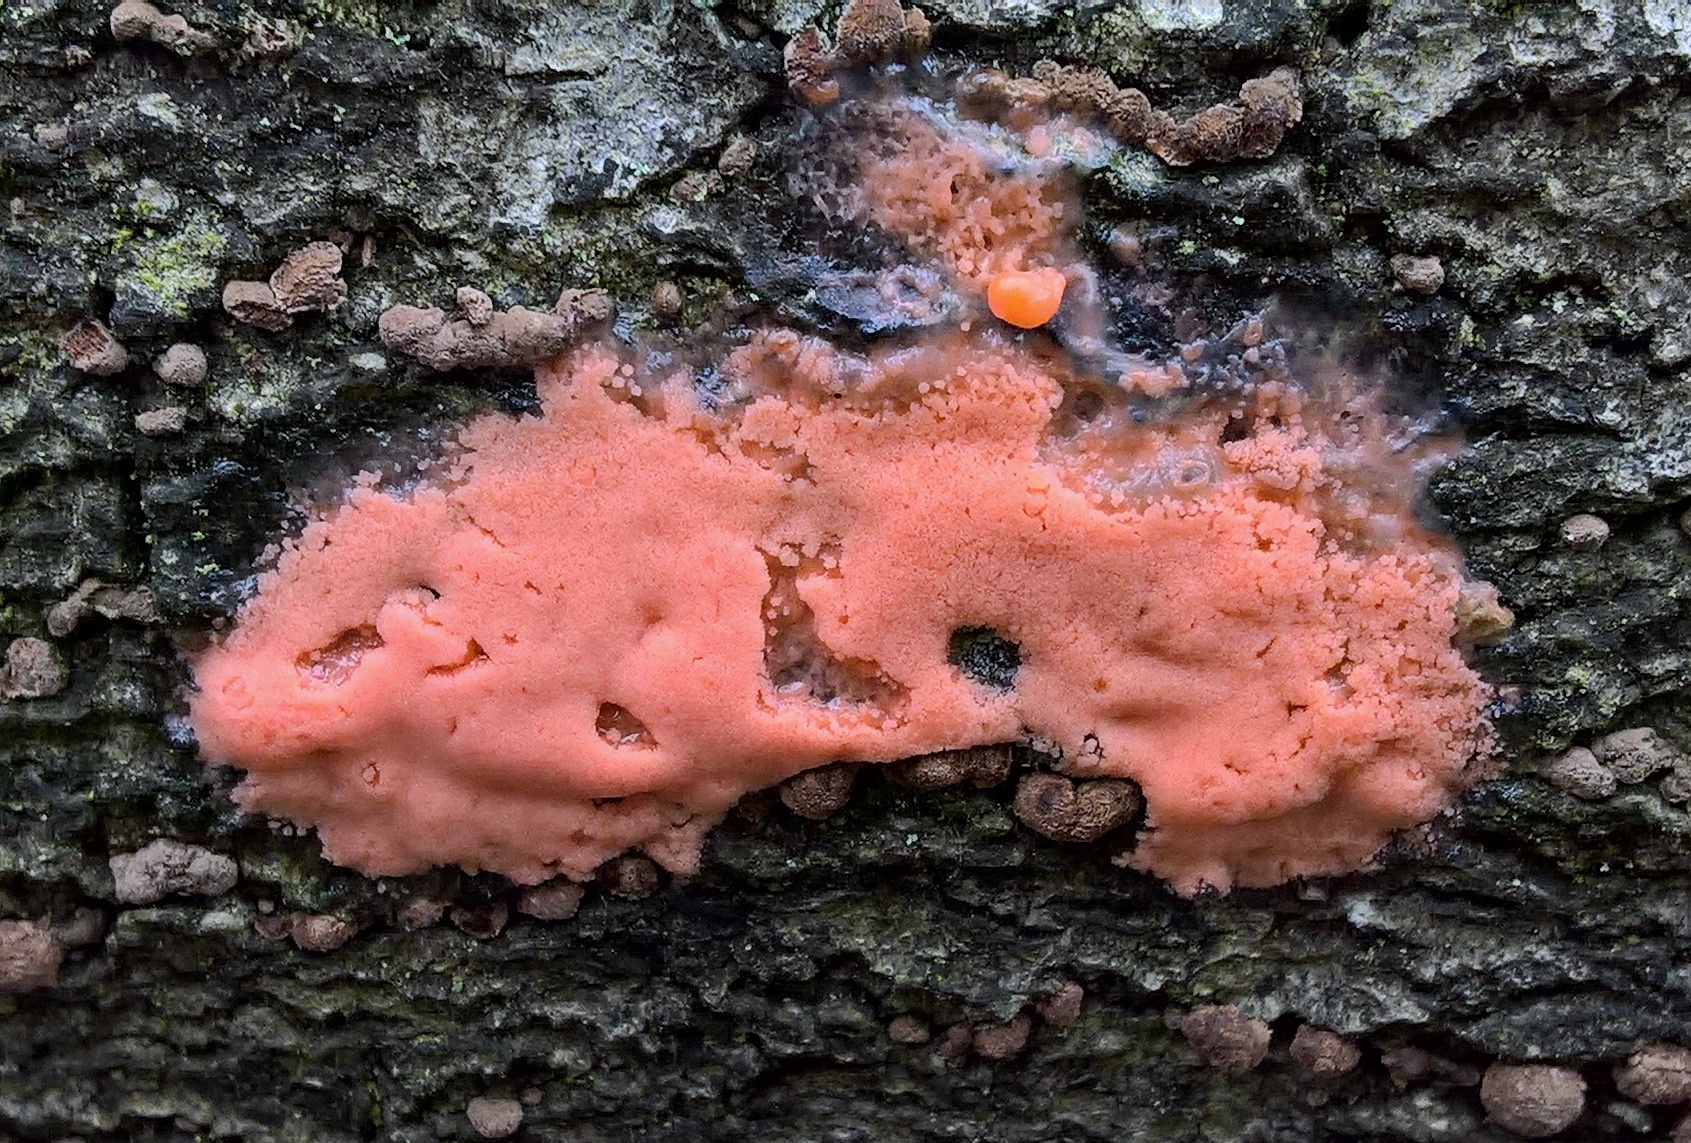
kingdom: Protozoa
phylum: Mycetozoa
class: Myxomycetes
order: Trichiales
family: Dictydiaethaliaceae
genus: Dictydiaethalium
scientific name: Dictydiaethalium plumbeum
